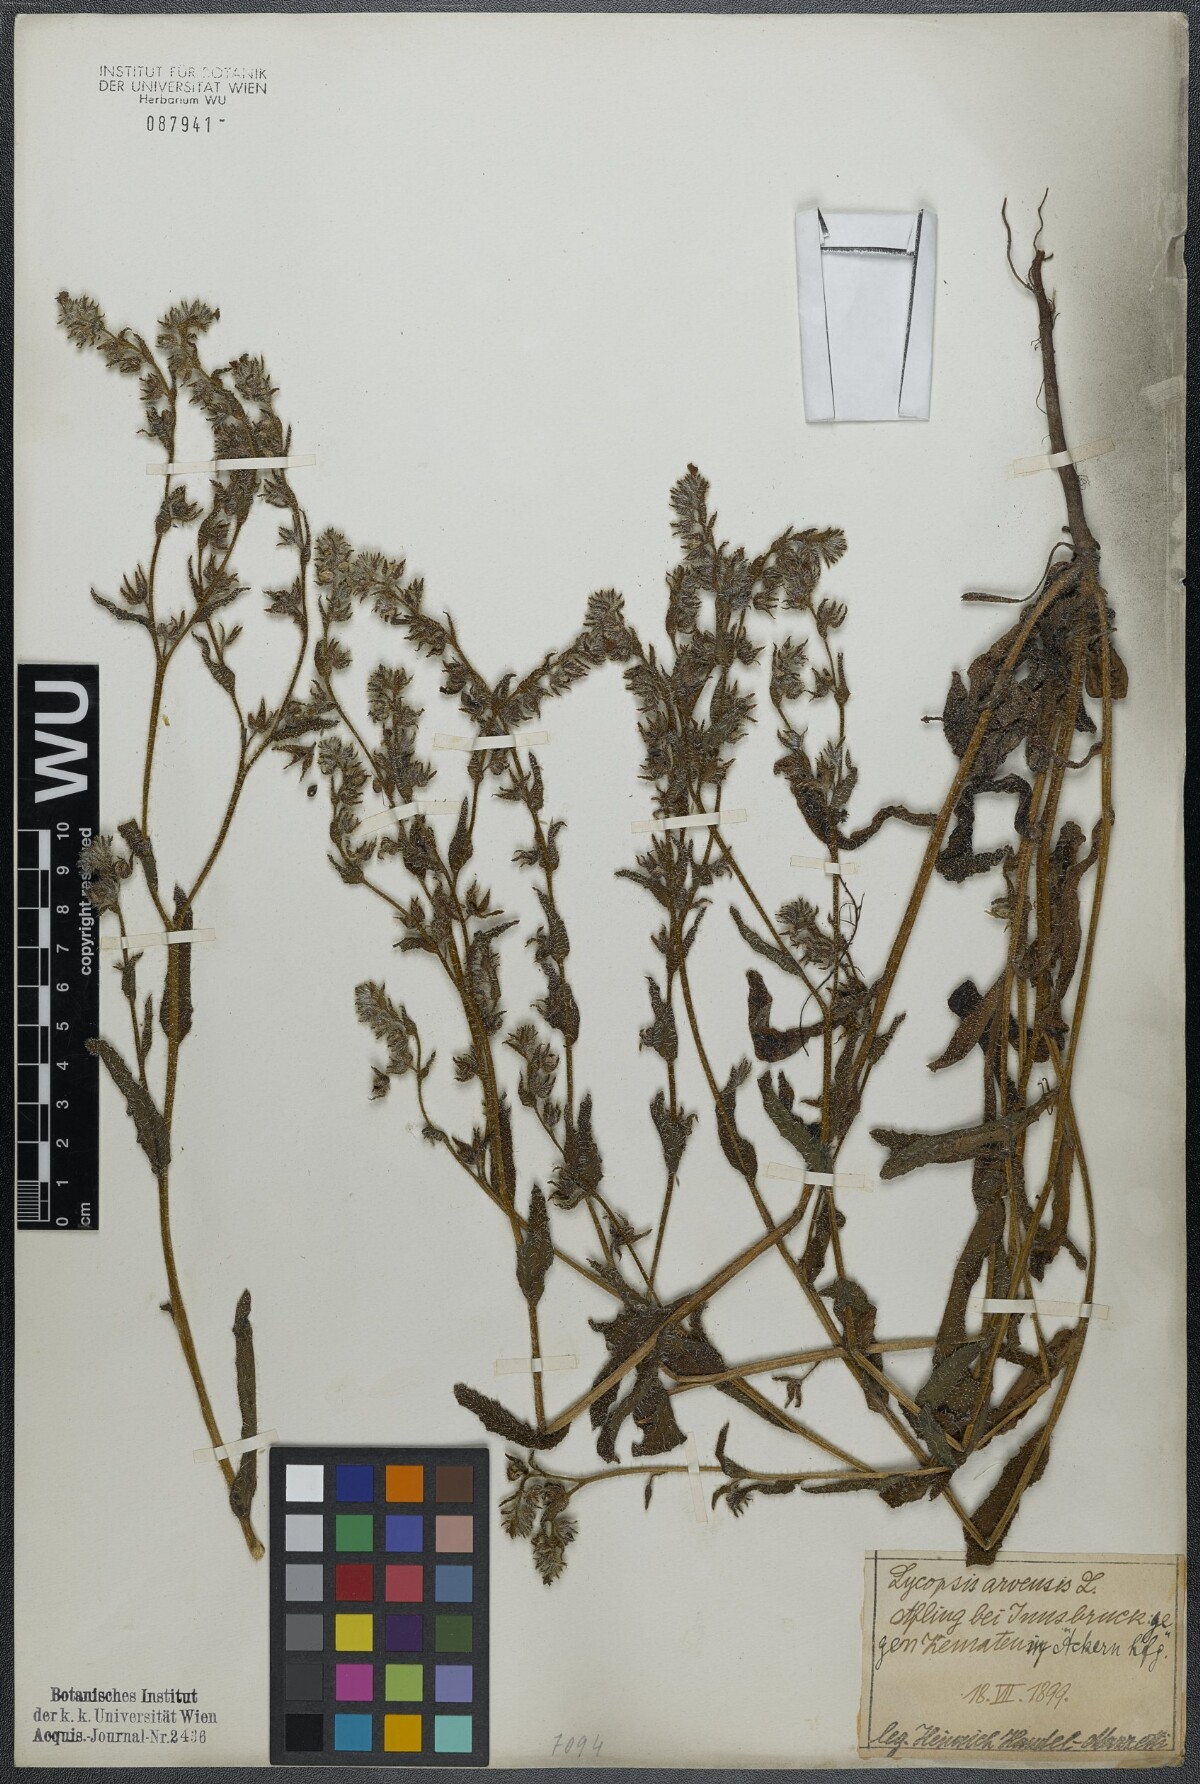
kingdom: Plantae
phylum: Tracheophyta
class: Magnoliopsida
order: Boraginales
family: Boraginaceae
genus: Lycopsis
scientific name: Lycopsis arvensis
